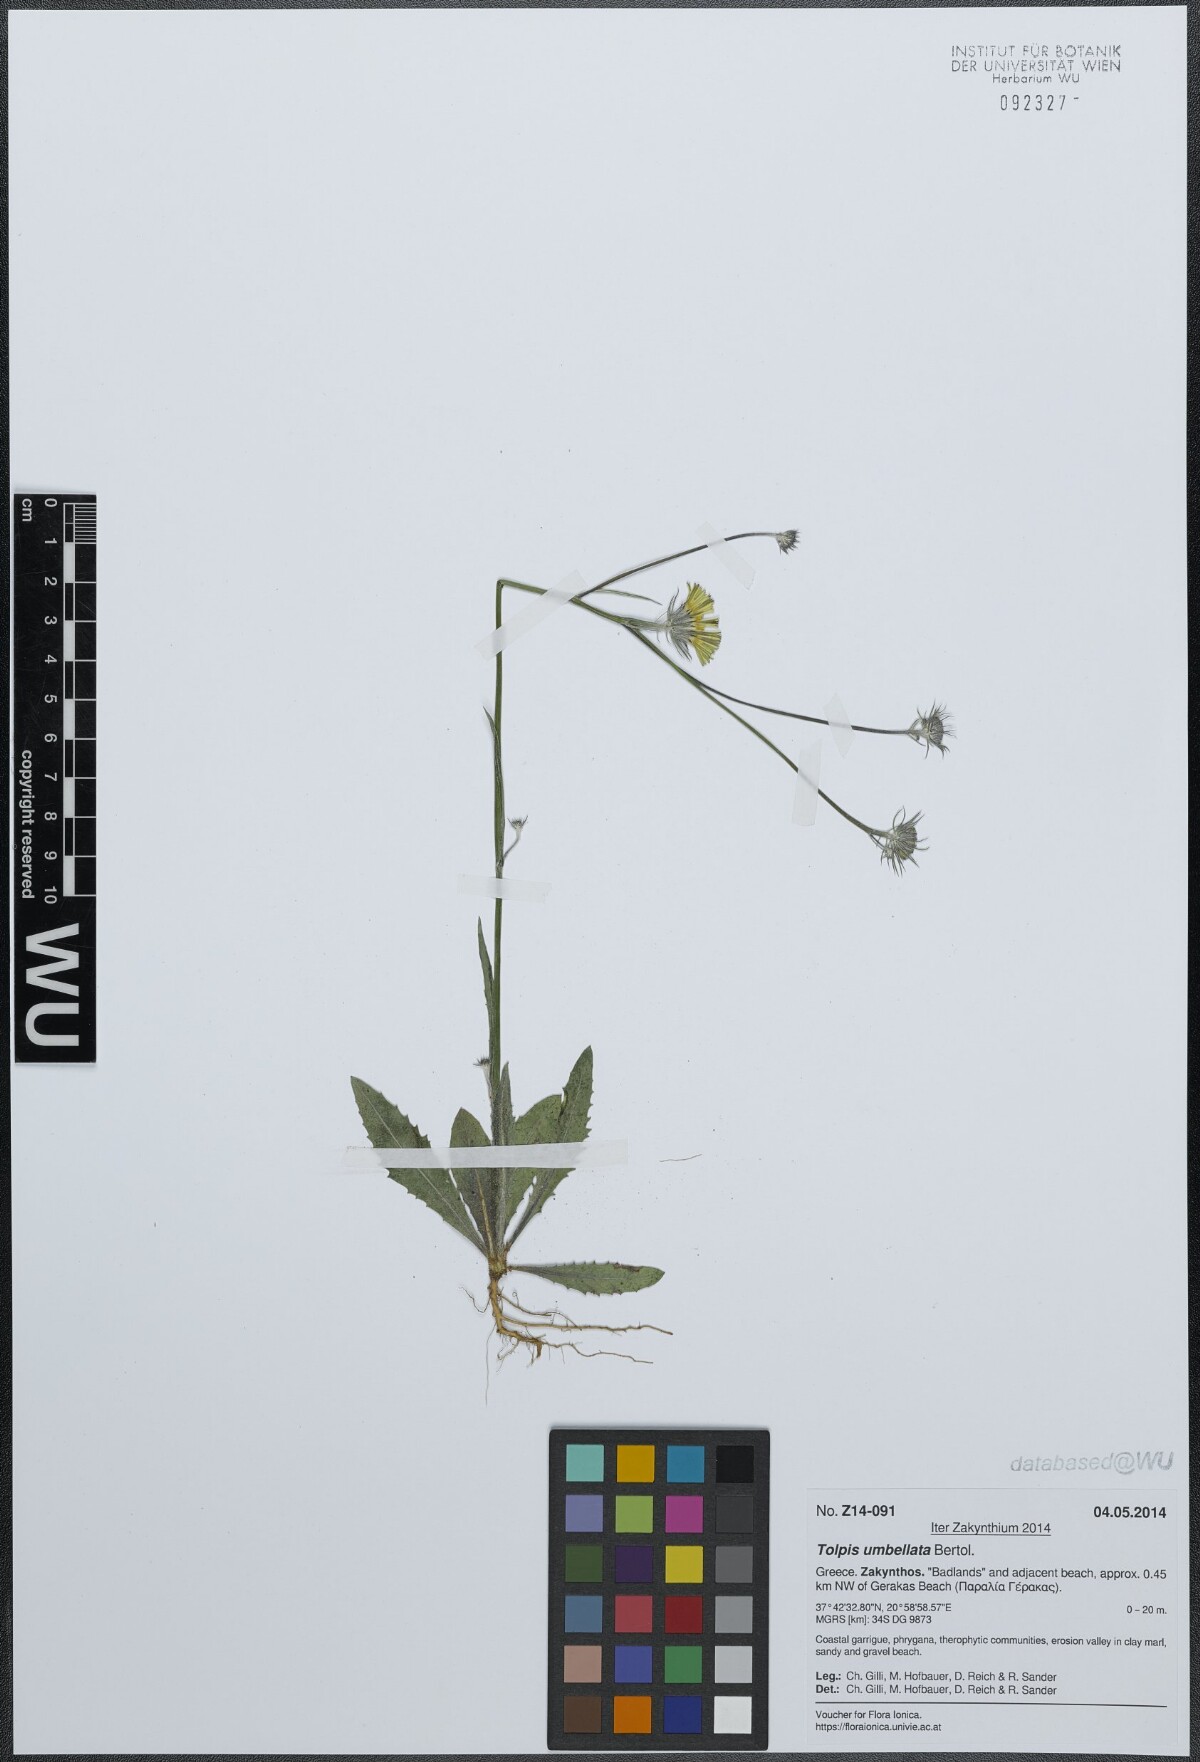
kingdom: Plantae
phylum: Tracheophyta
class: Magnoliopsida
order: Asterales
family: Asteraceae
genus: Tolpis
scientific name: Tolpis umbellata
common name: Yellow hawkweed
